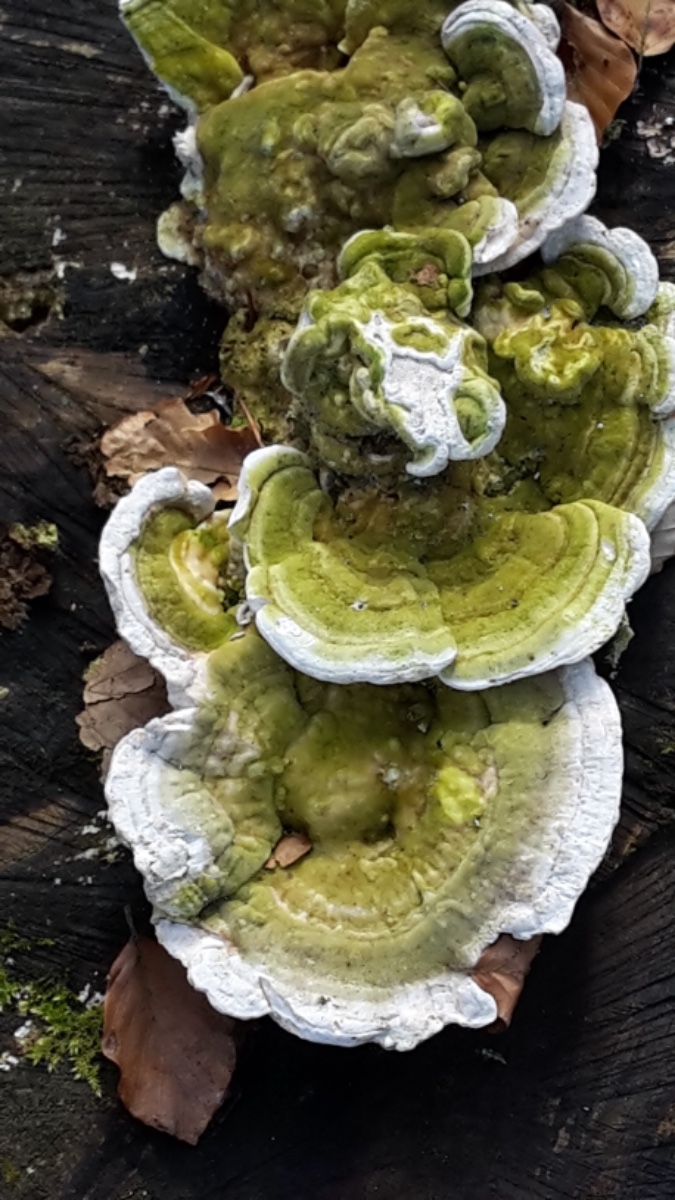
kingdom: Fungi
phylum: Basidiomycota
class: Agaricomycetes
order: Polyporales
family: Polyporaceae
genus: Trametes
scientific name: Trametes gibbosa
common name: puklet læderporesvamp
